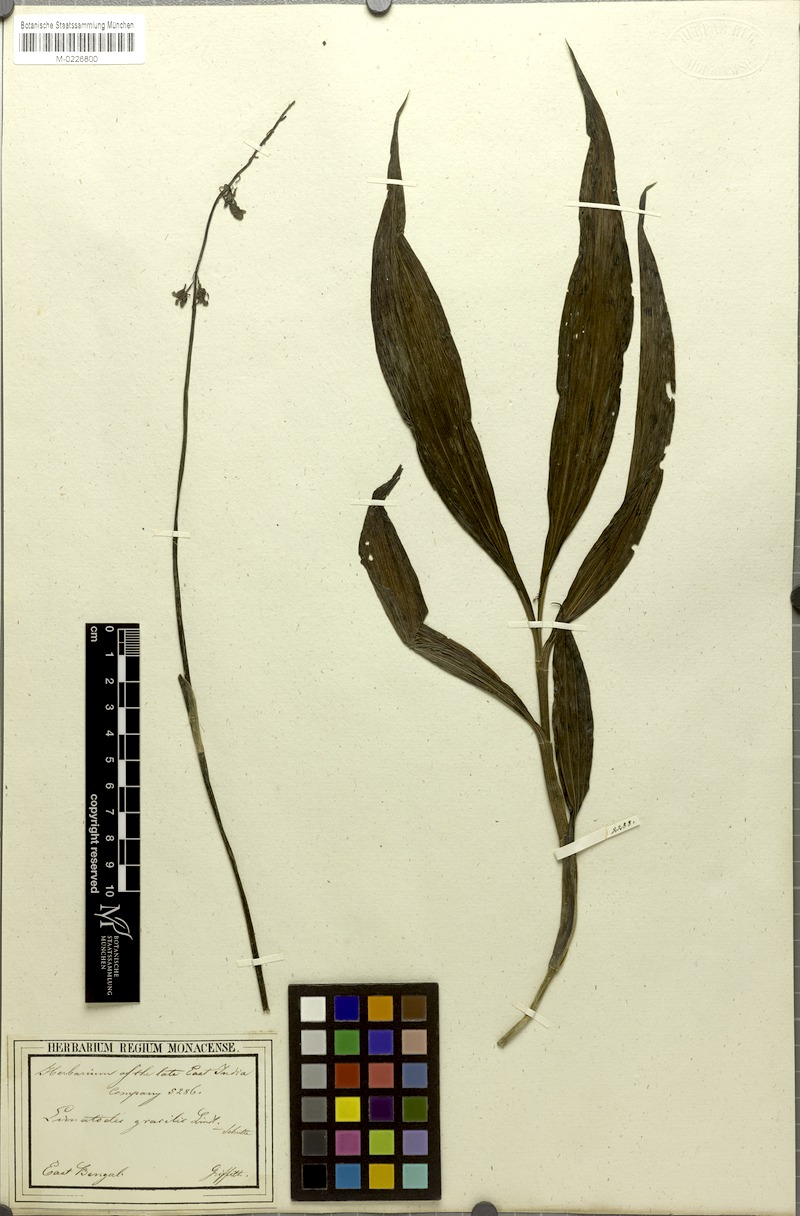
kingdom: Plantae
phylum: Tracheophyta
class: Liliopsida
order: Asparagales
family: Orchidaceae
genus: Calanthe
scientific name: Calanthe obcordata
